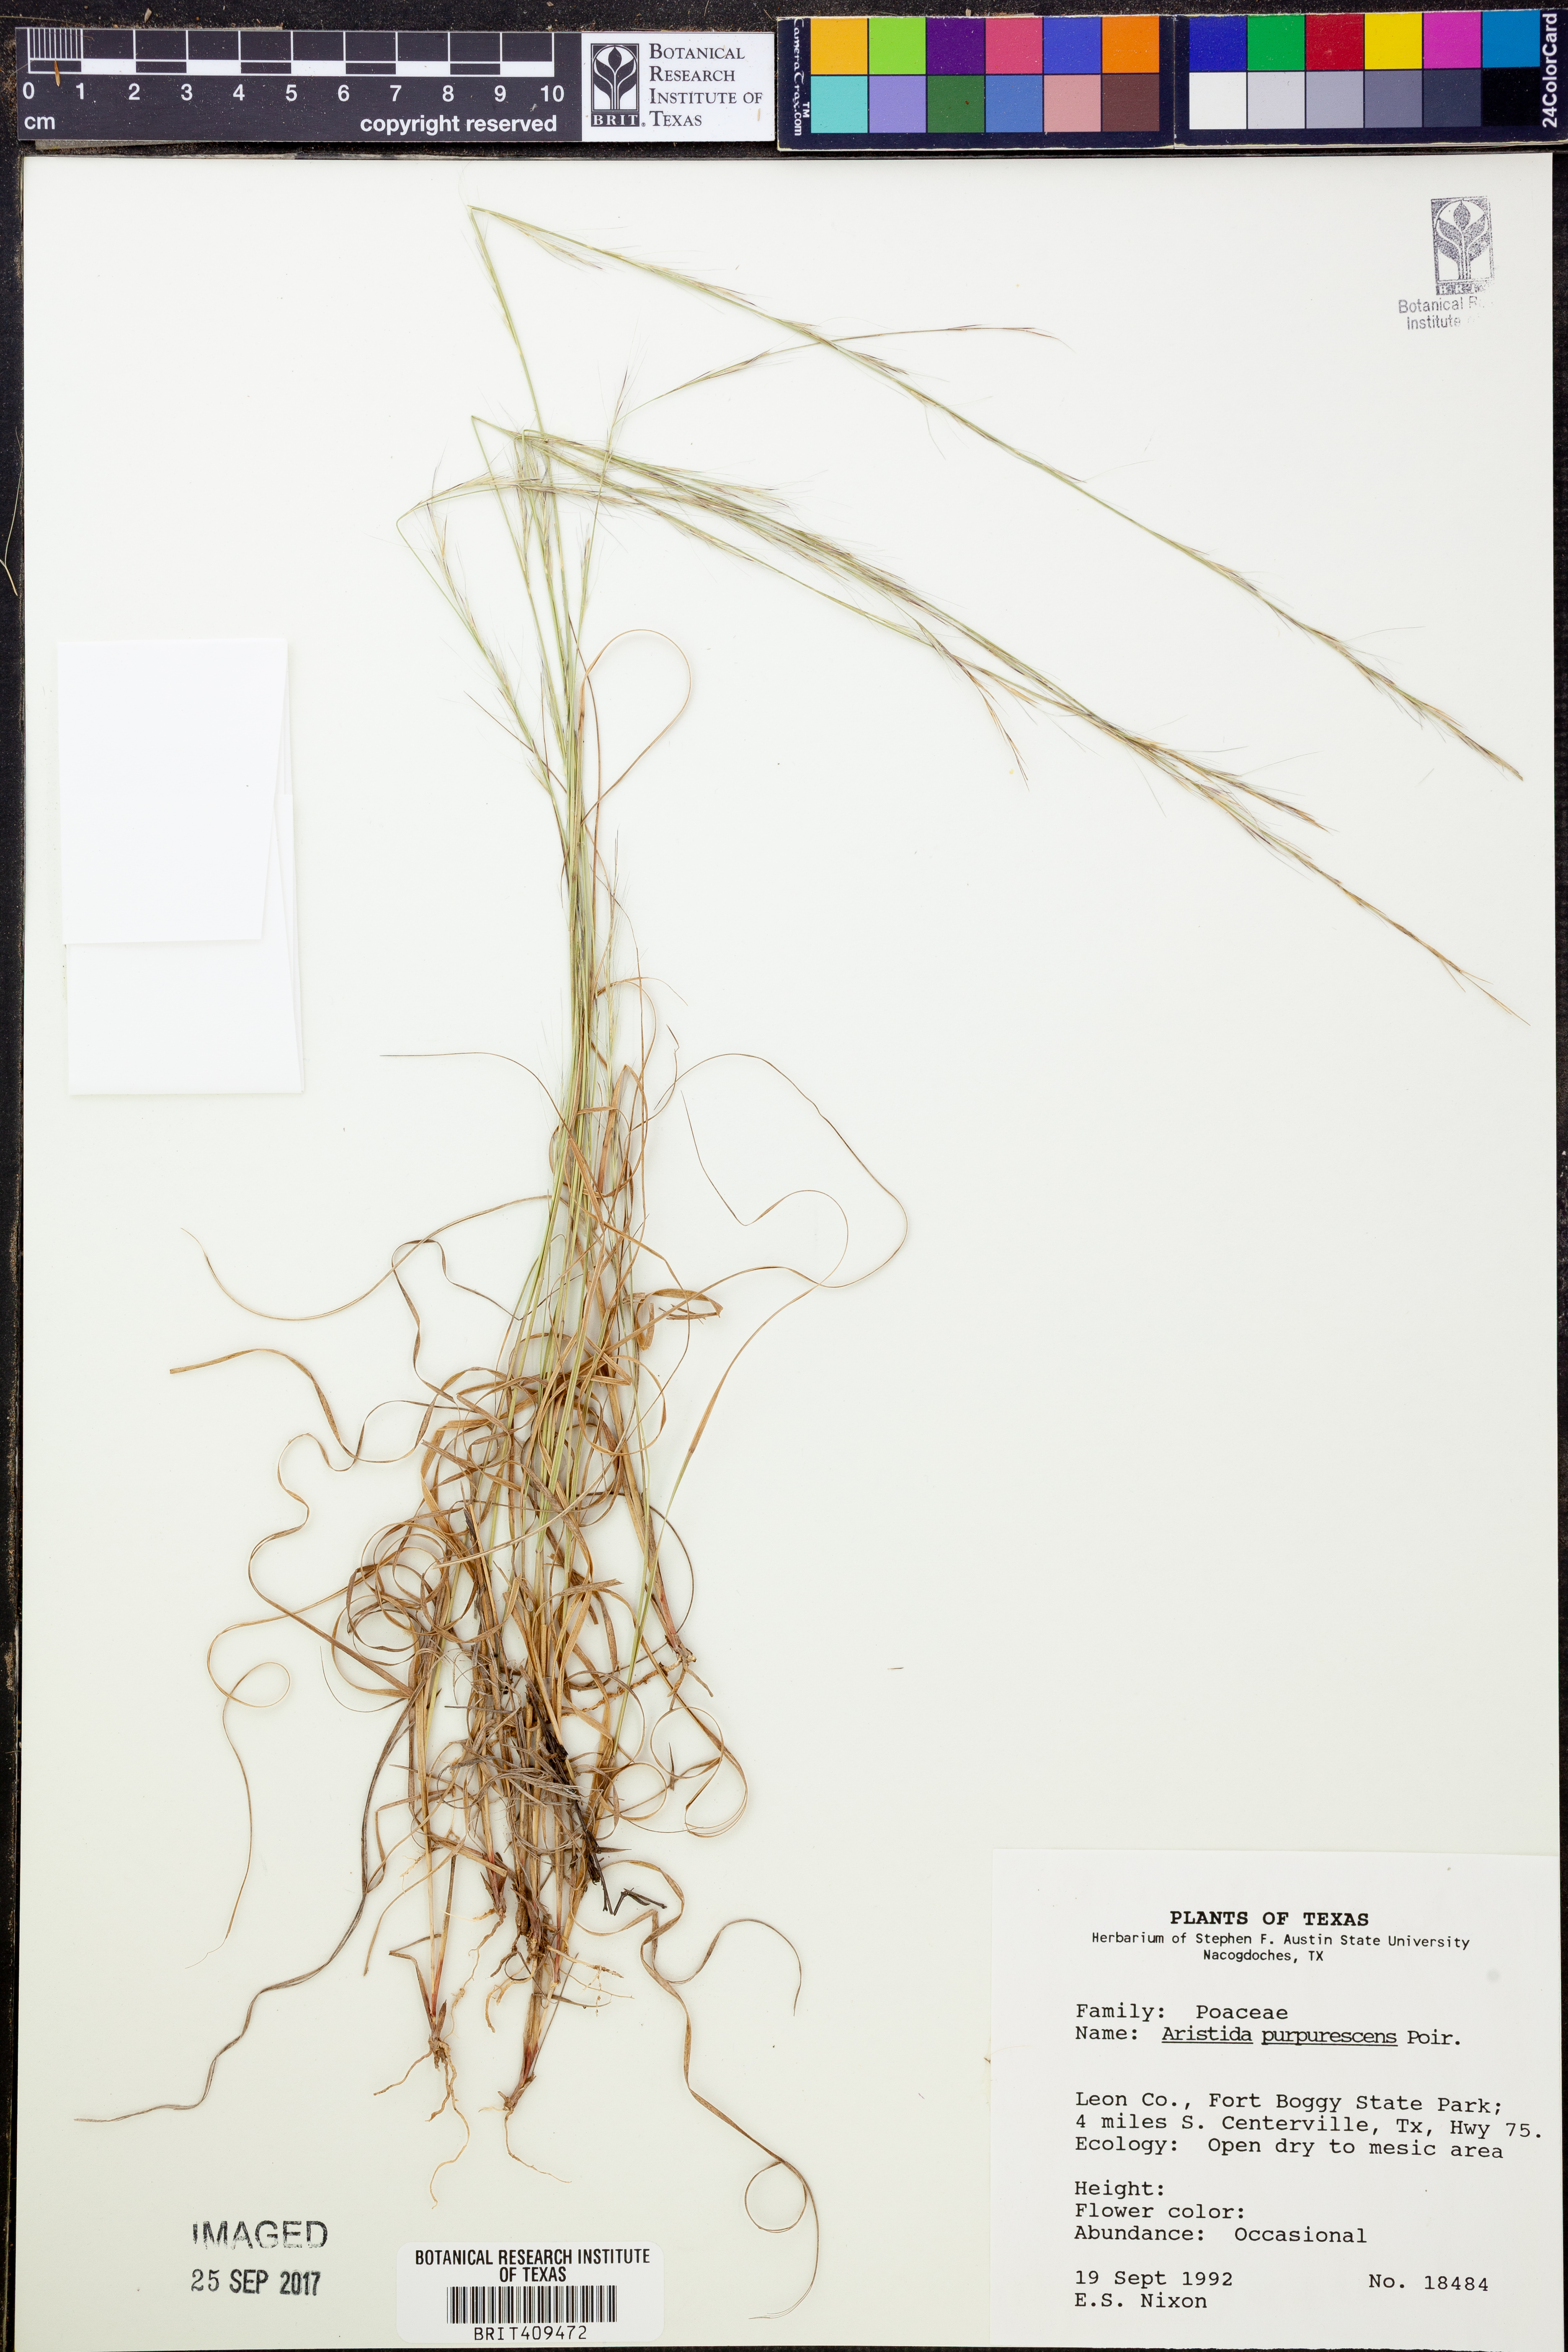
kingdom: Plantae
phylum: Tracheophyta
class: Liliopsida
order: Poales
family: Poaceae
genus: Aristida
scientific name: Aristida purpurascens
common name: Arrow-feather
